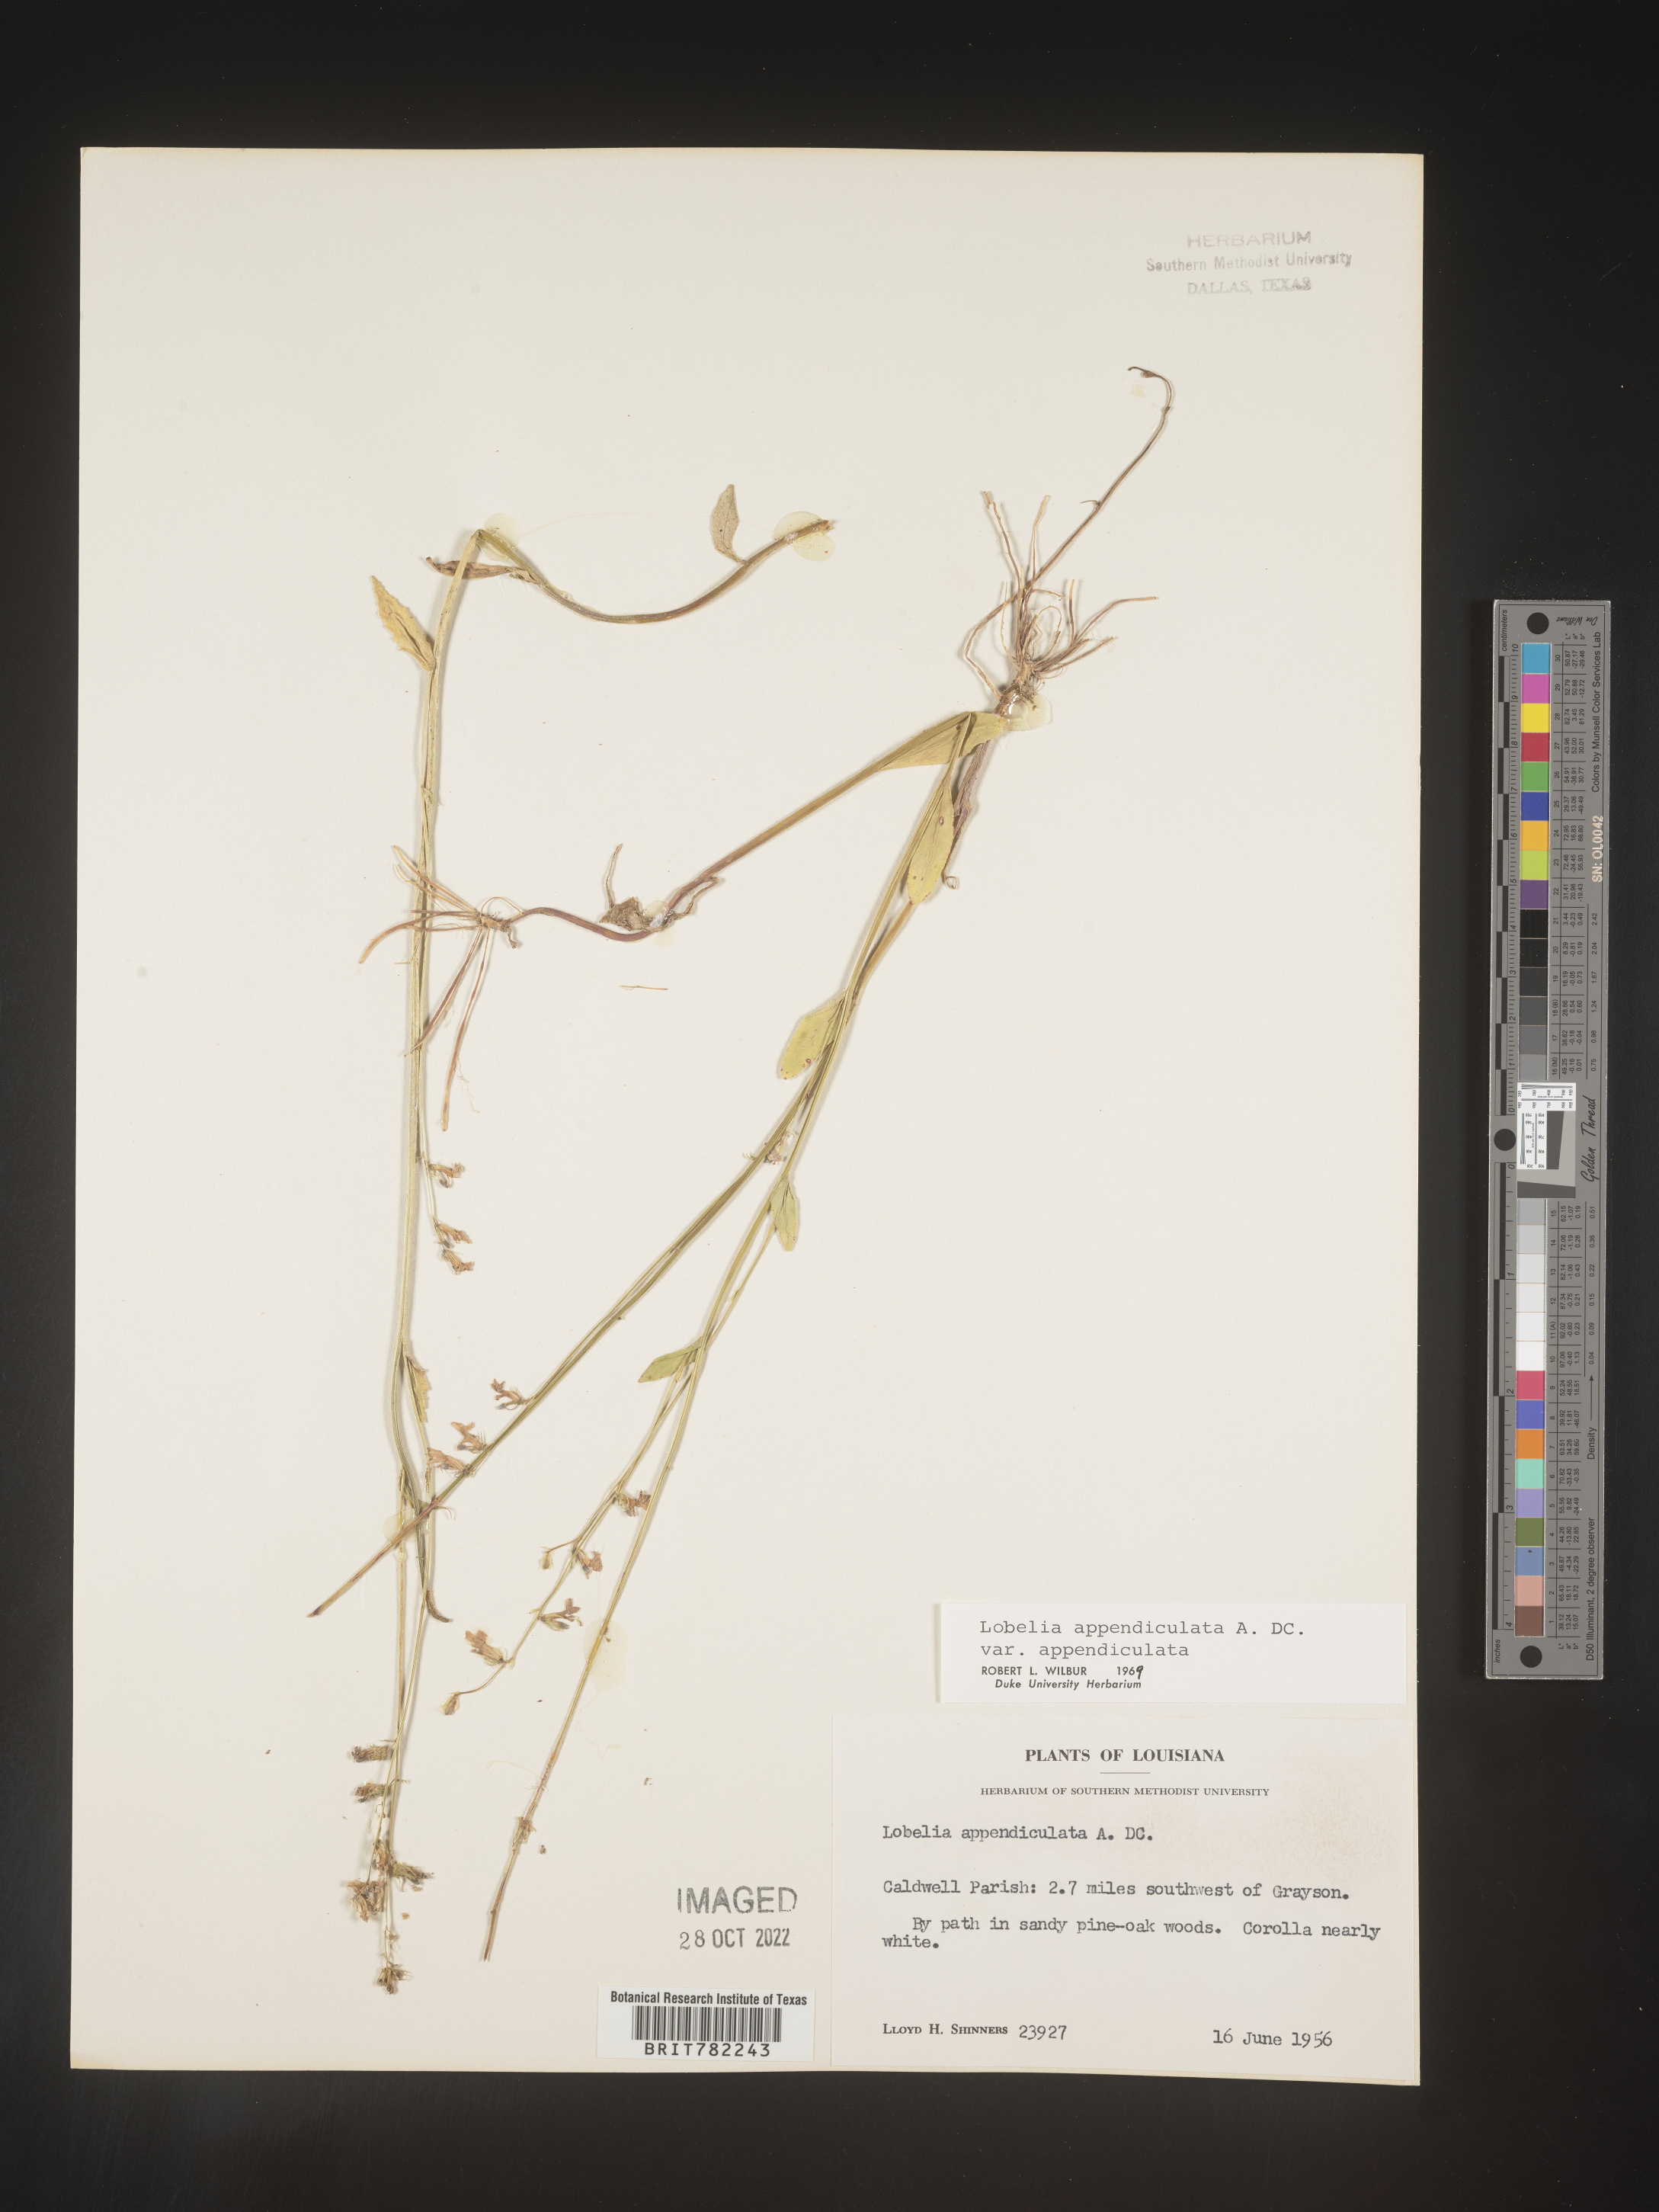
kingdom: Plantae
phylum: Tracheophyta
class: Magnoliopsida
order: Asterales
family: Campanulaceae
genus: Lobelia
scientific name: Lobelia appendiculata
